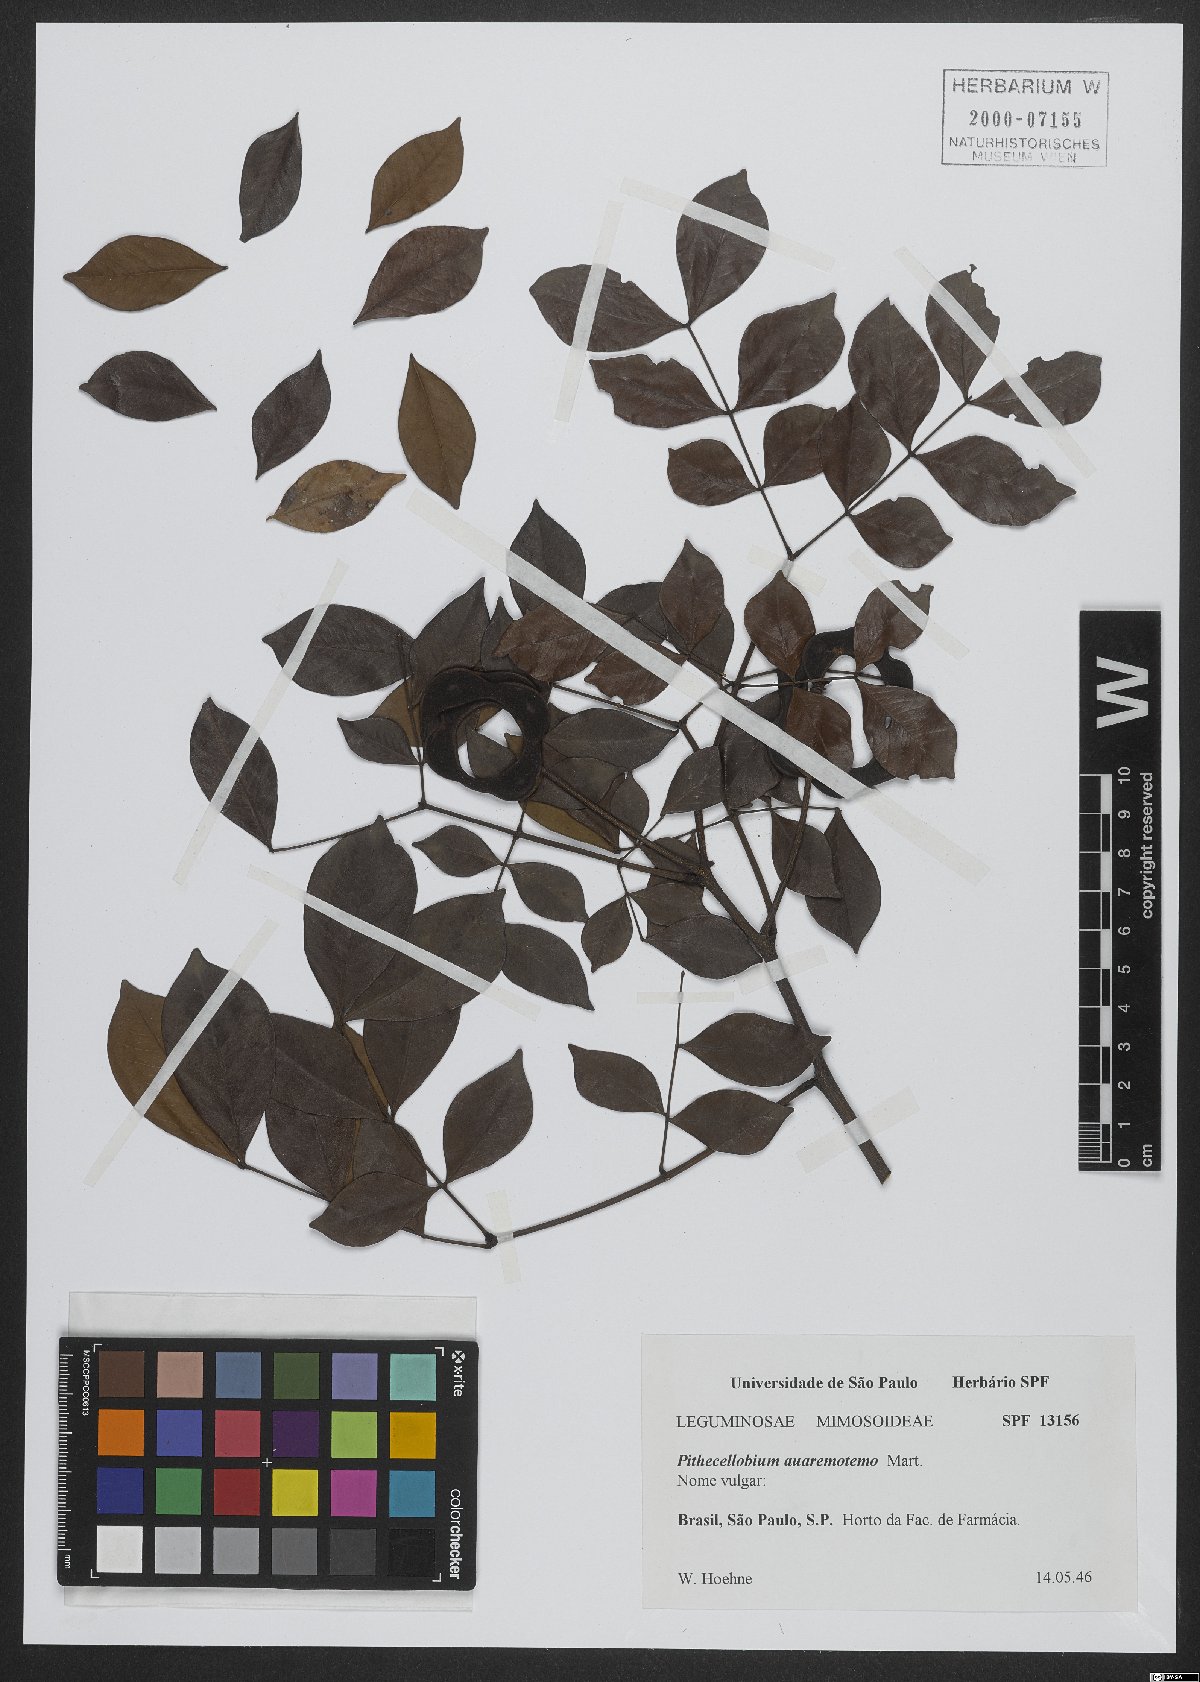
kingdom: Plantae
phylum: Tracheophyta
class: Magnoliopsida
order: Fabales
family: Fabaceae
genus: Abarema
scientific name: Abarema cochliacarpos
